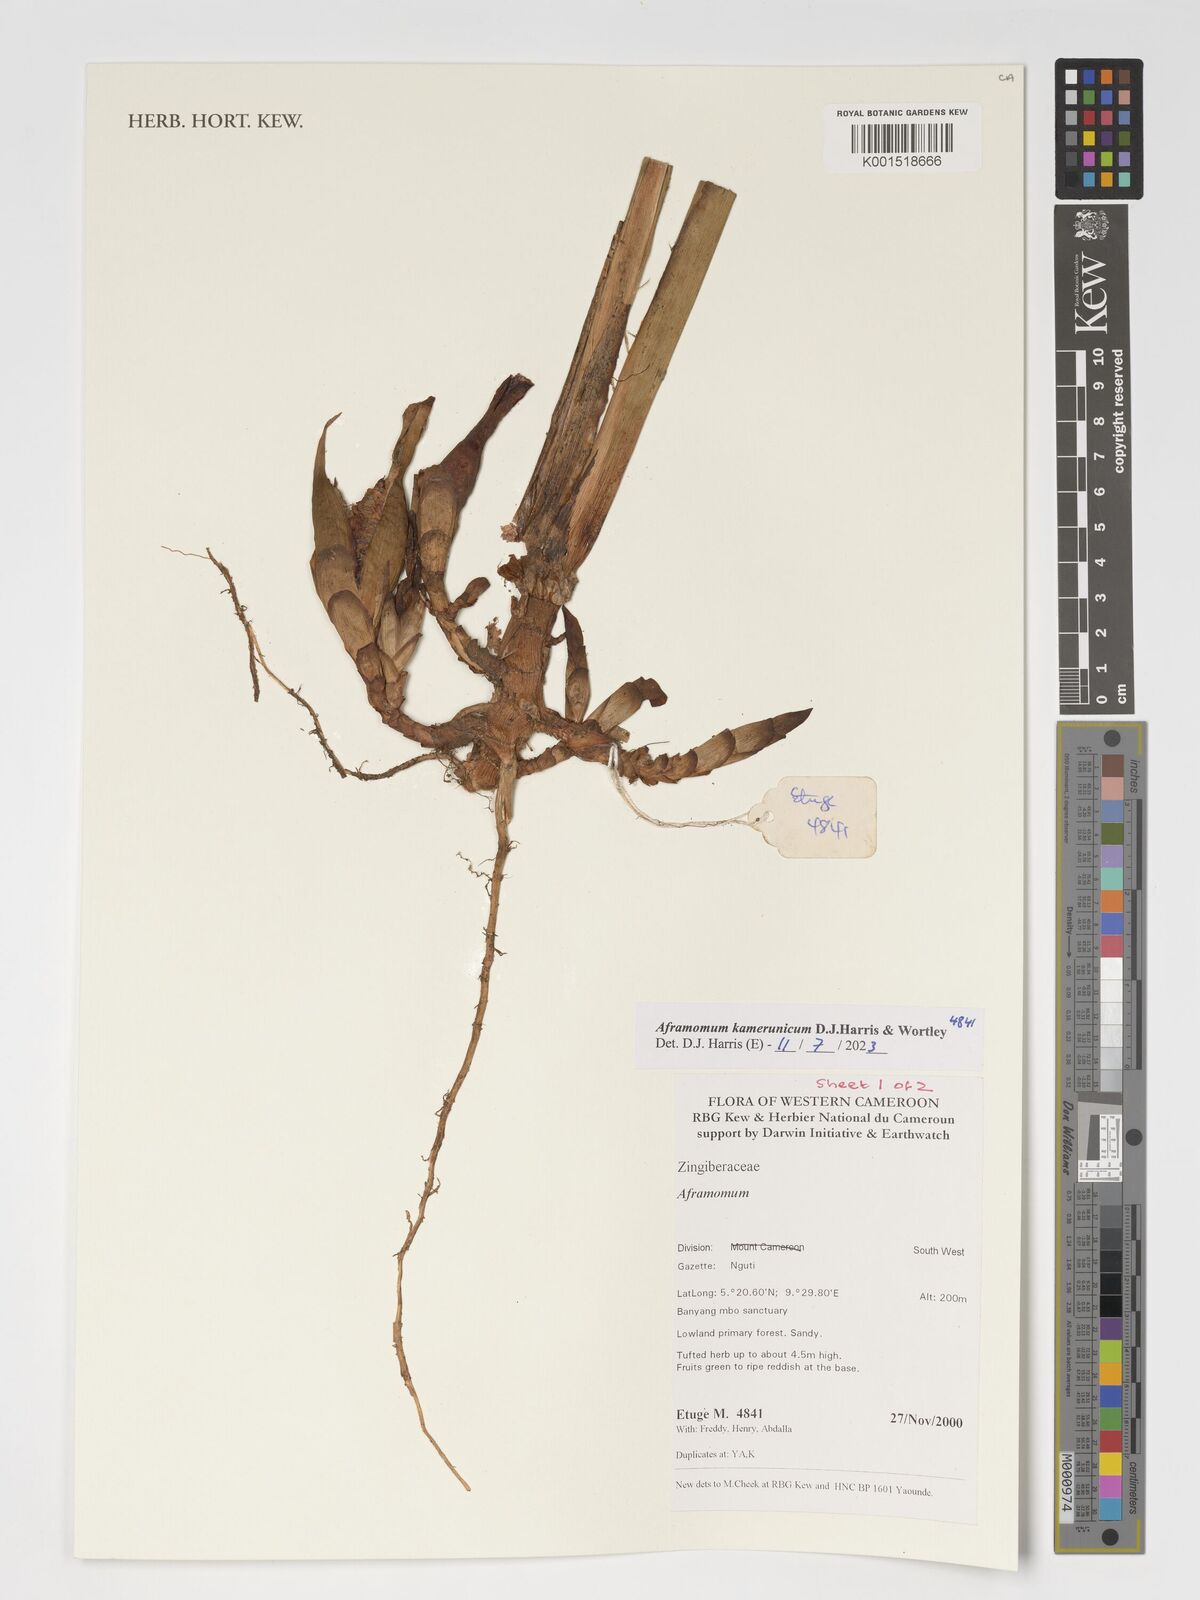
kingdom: Plantae
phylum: Tracheophyta
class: Liliopsida
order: Zingiberales
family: Zingiberaceae
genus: Aframomum
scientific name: Aframomum kamerunicum
